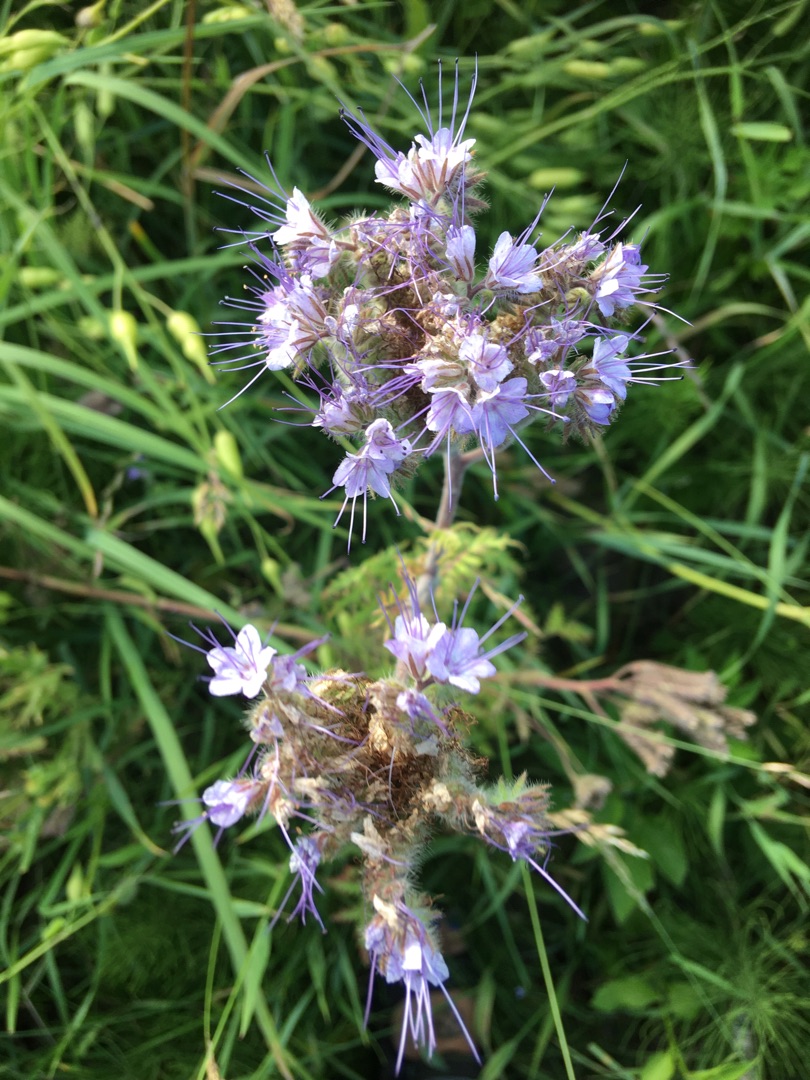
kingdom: Plantae
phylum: Tracheophyta
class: Magnoliopsida
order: Boraginales
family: Hydrophyllaceae
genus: Phacelia
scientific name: Phacelia tanacetifolia
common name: Honningurt
